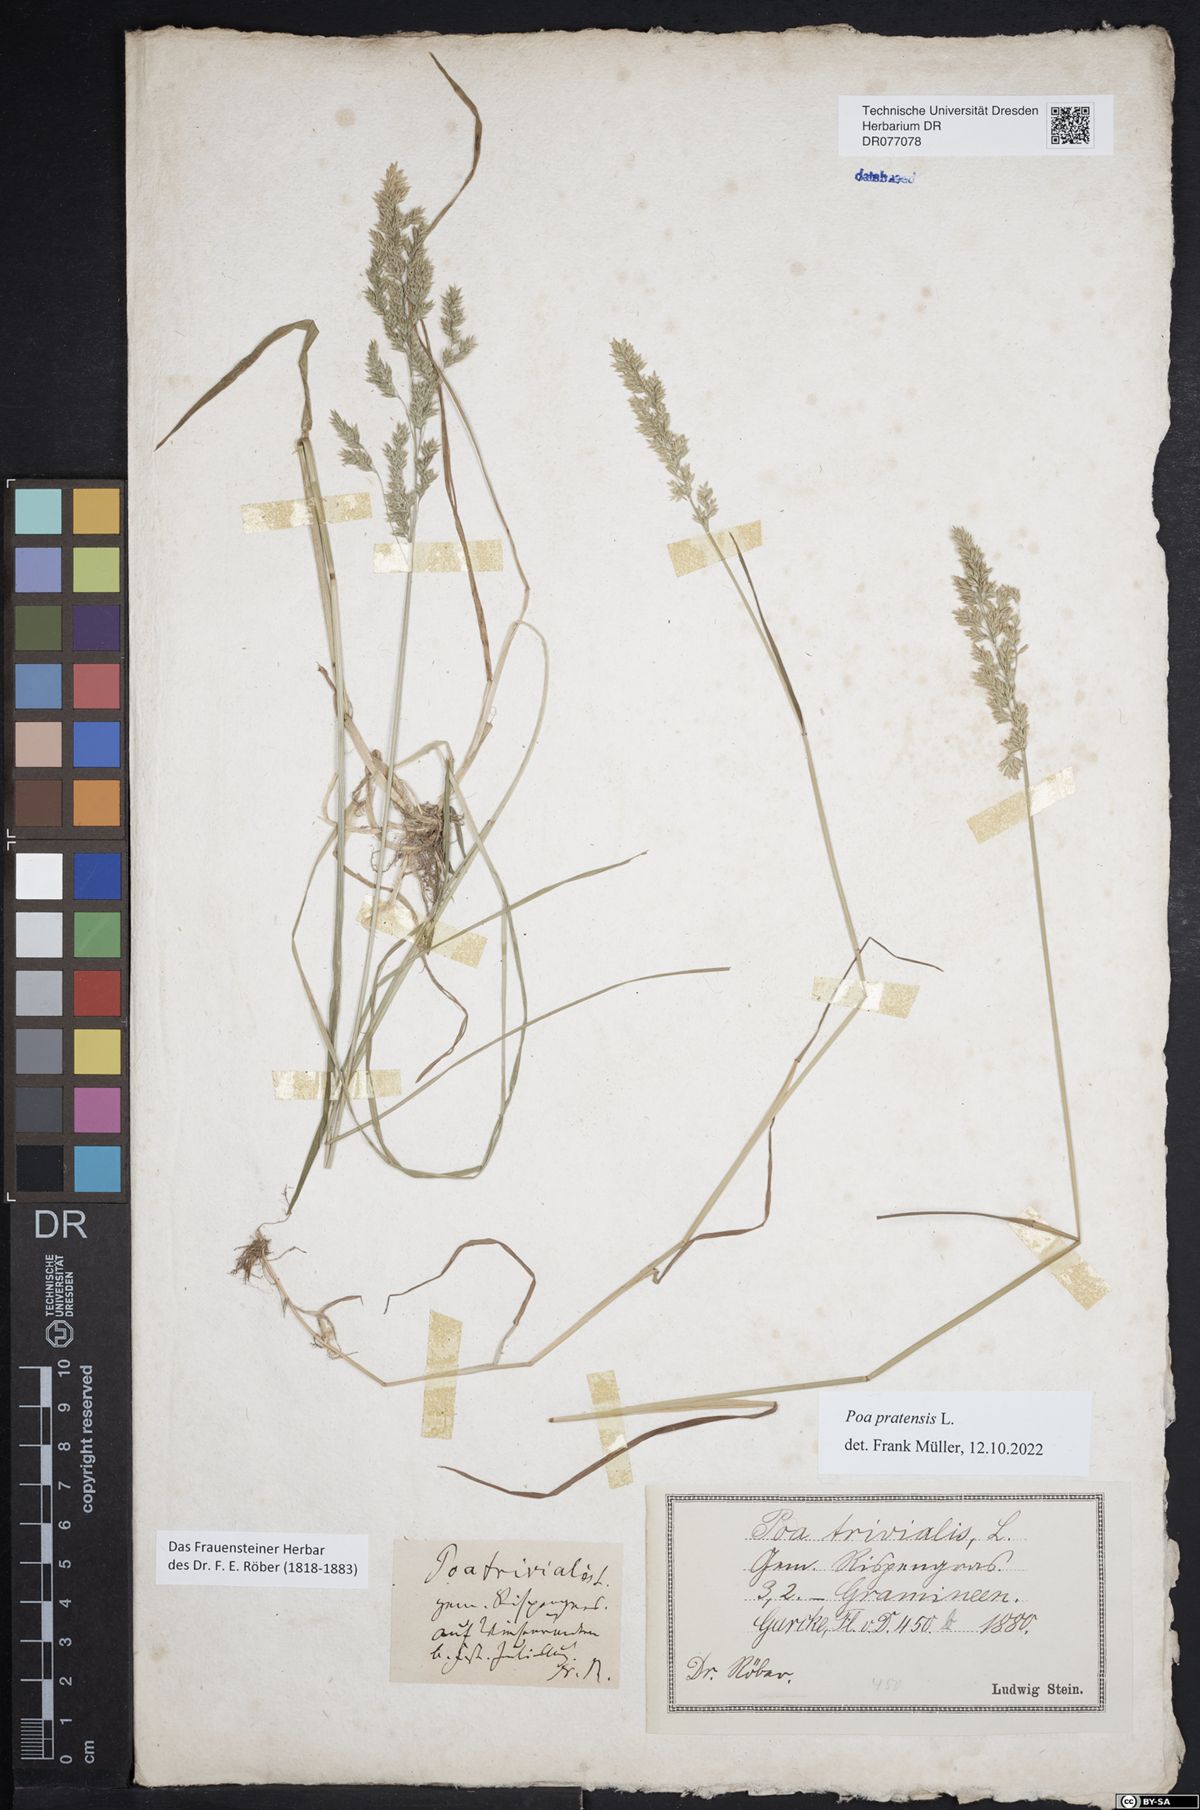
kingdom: Plantae
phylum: Tracheophyta
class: Liliopsida
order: Poales
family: Poaceae
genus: Poa
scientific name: Poa pratensis
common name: Kentucky bluegrass
